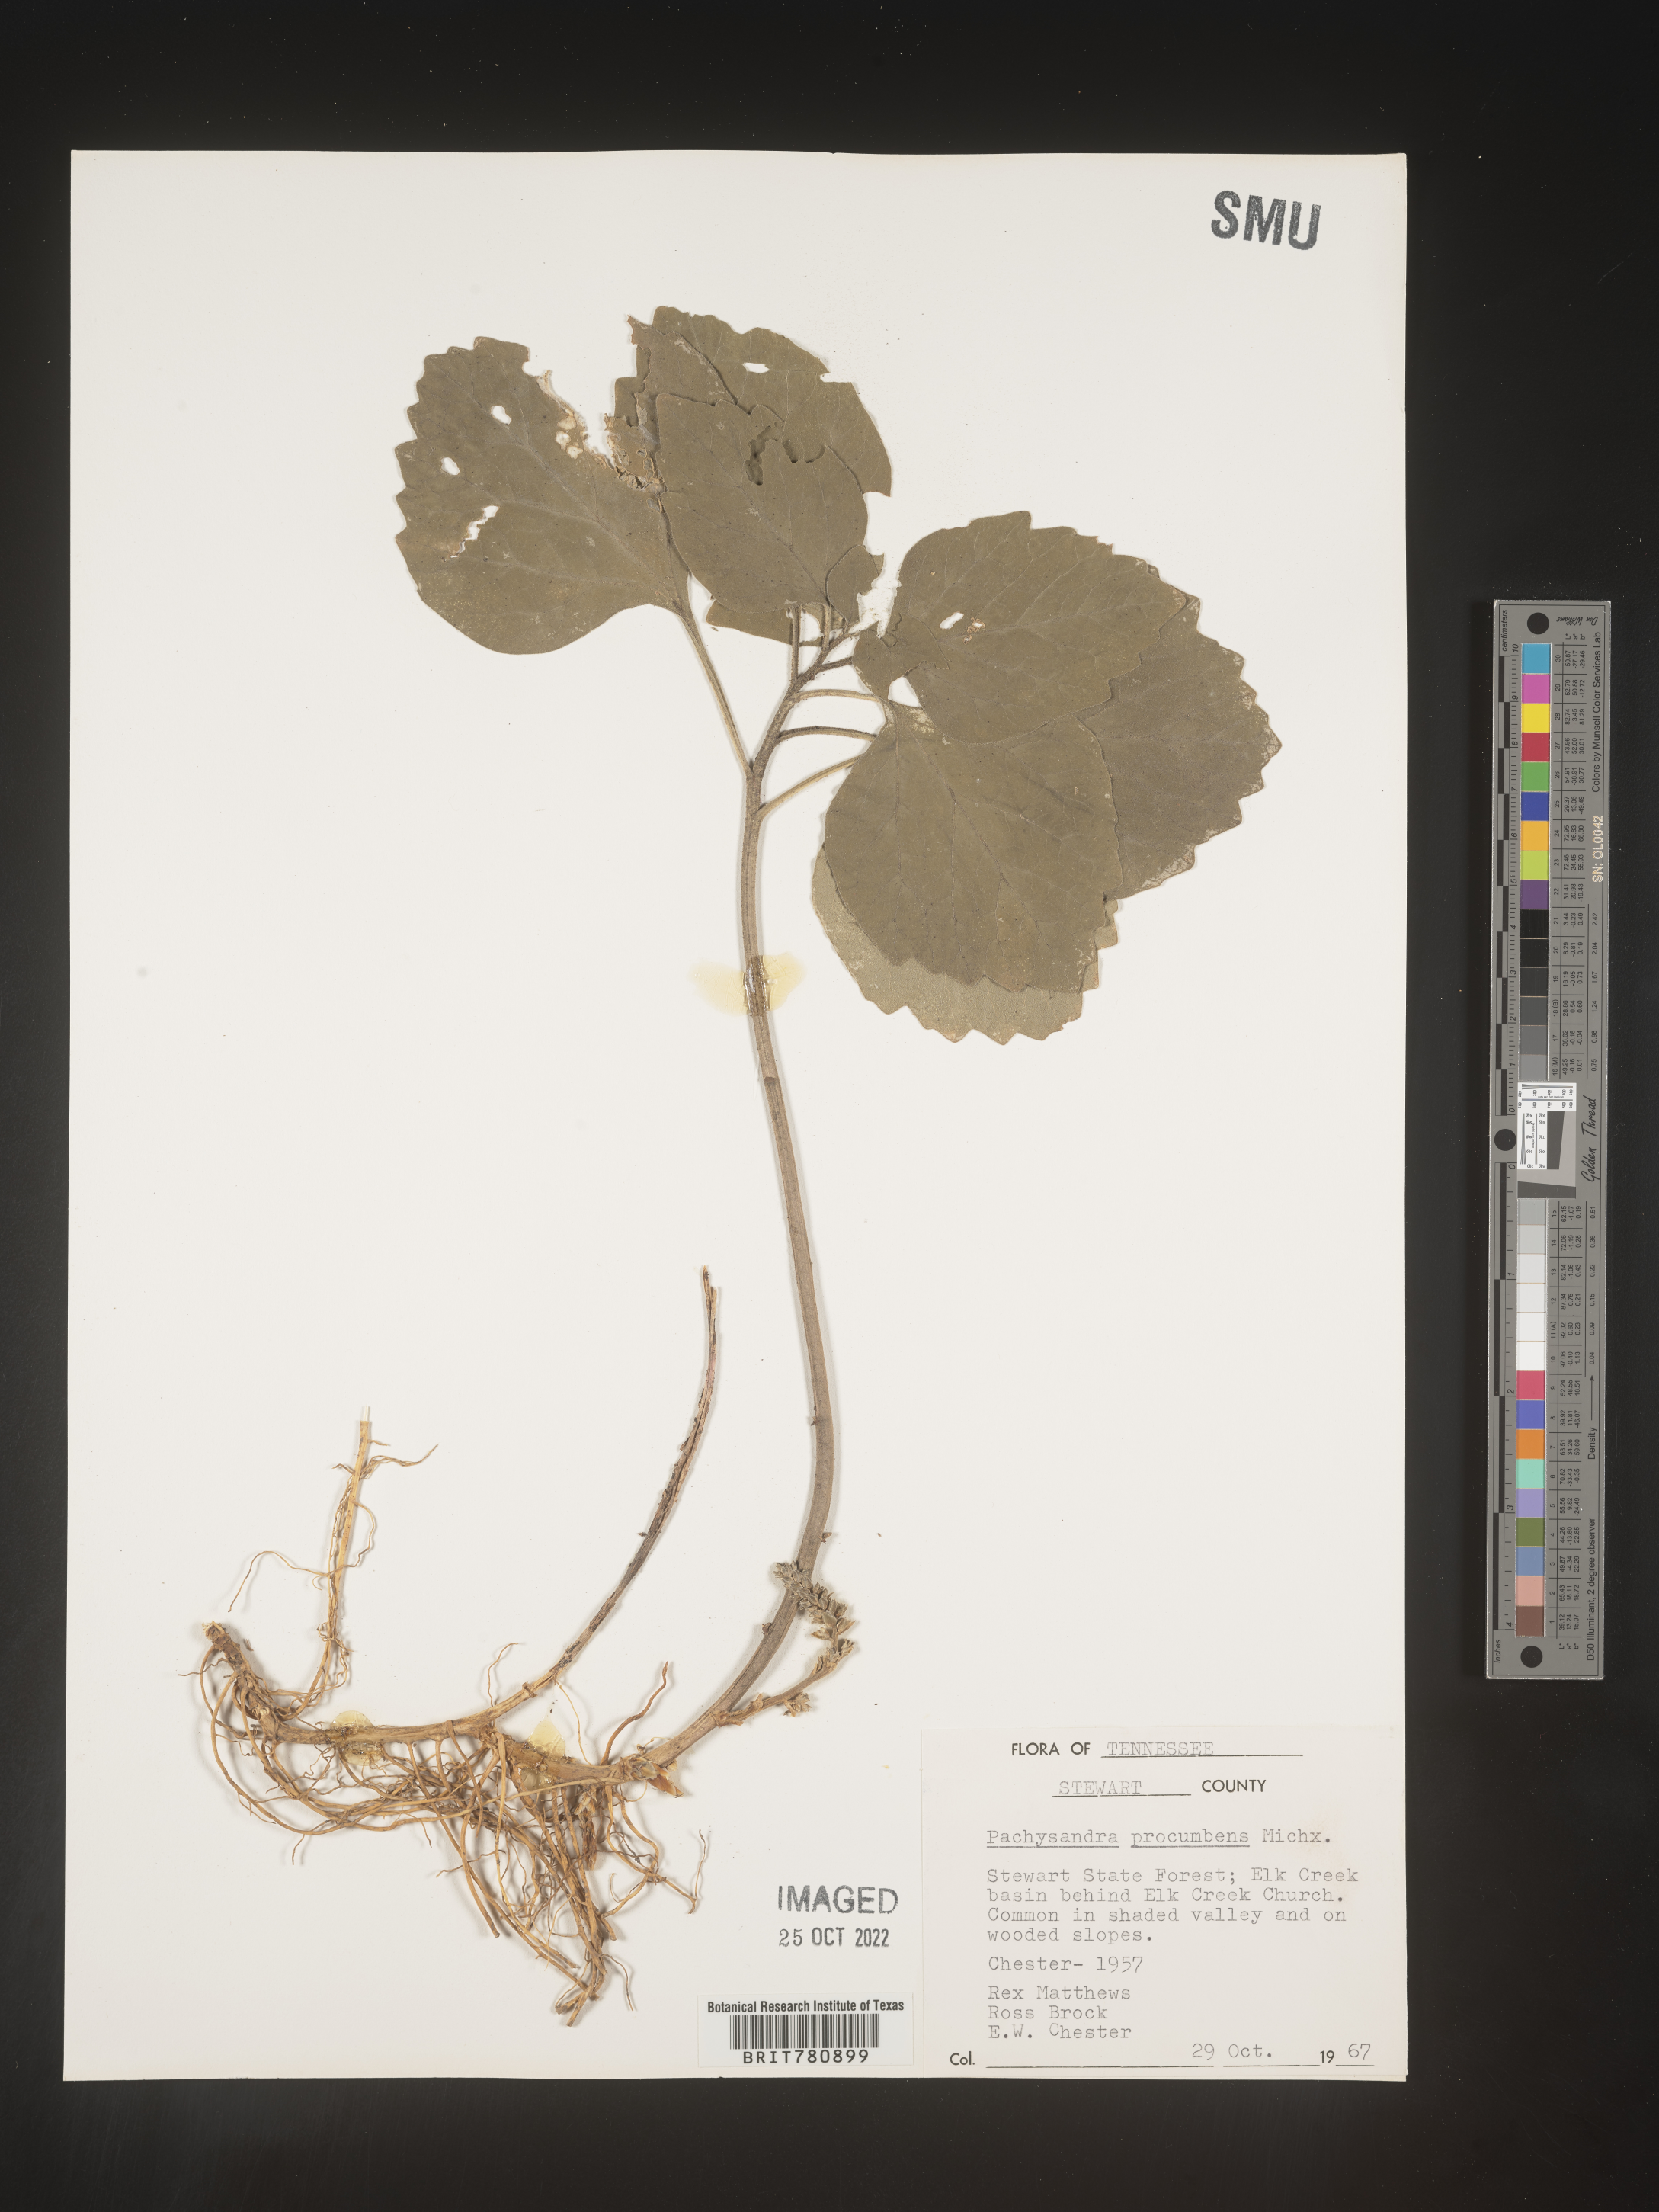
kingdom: Plantae
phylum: Tracheophyta
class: Magnoliopsida
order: Buxales
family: Buxaceae
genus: Pachysandra
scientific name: Pachysandra
